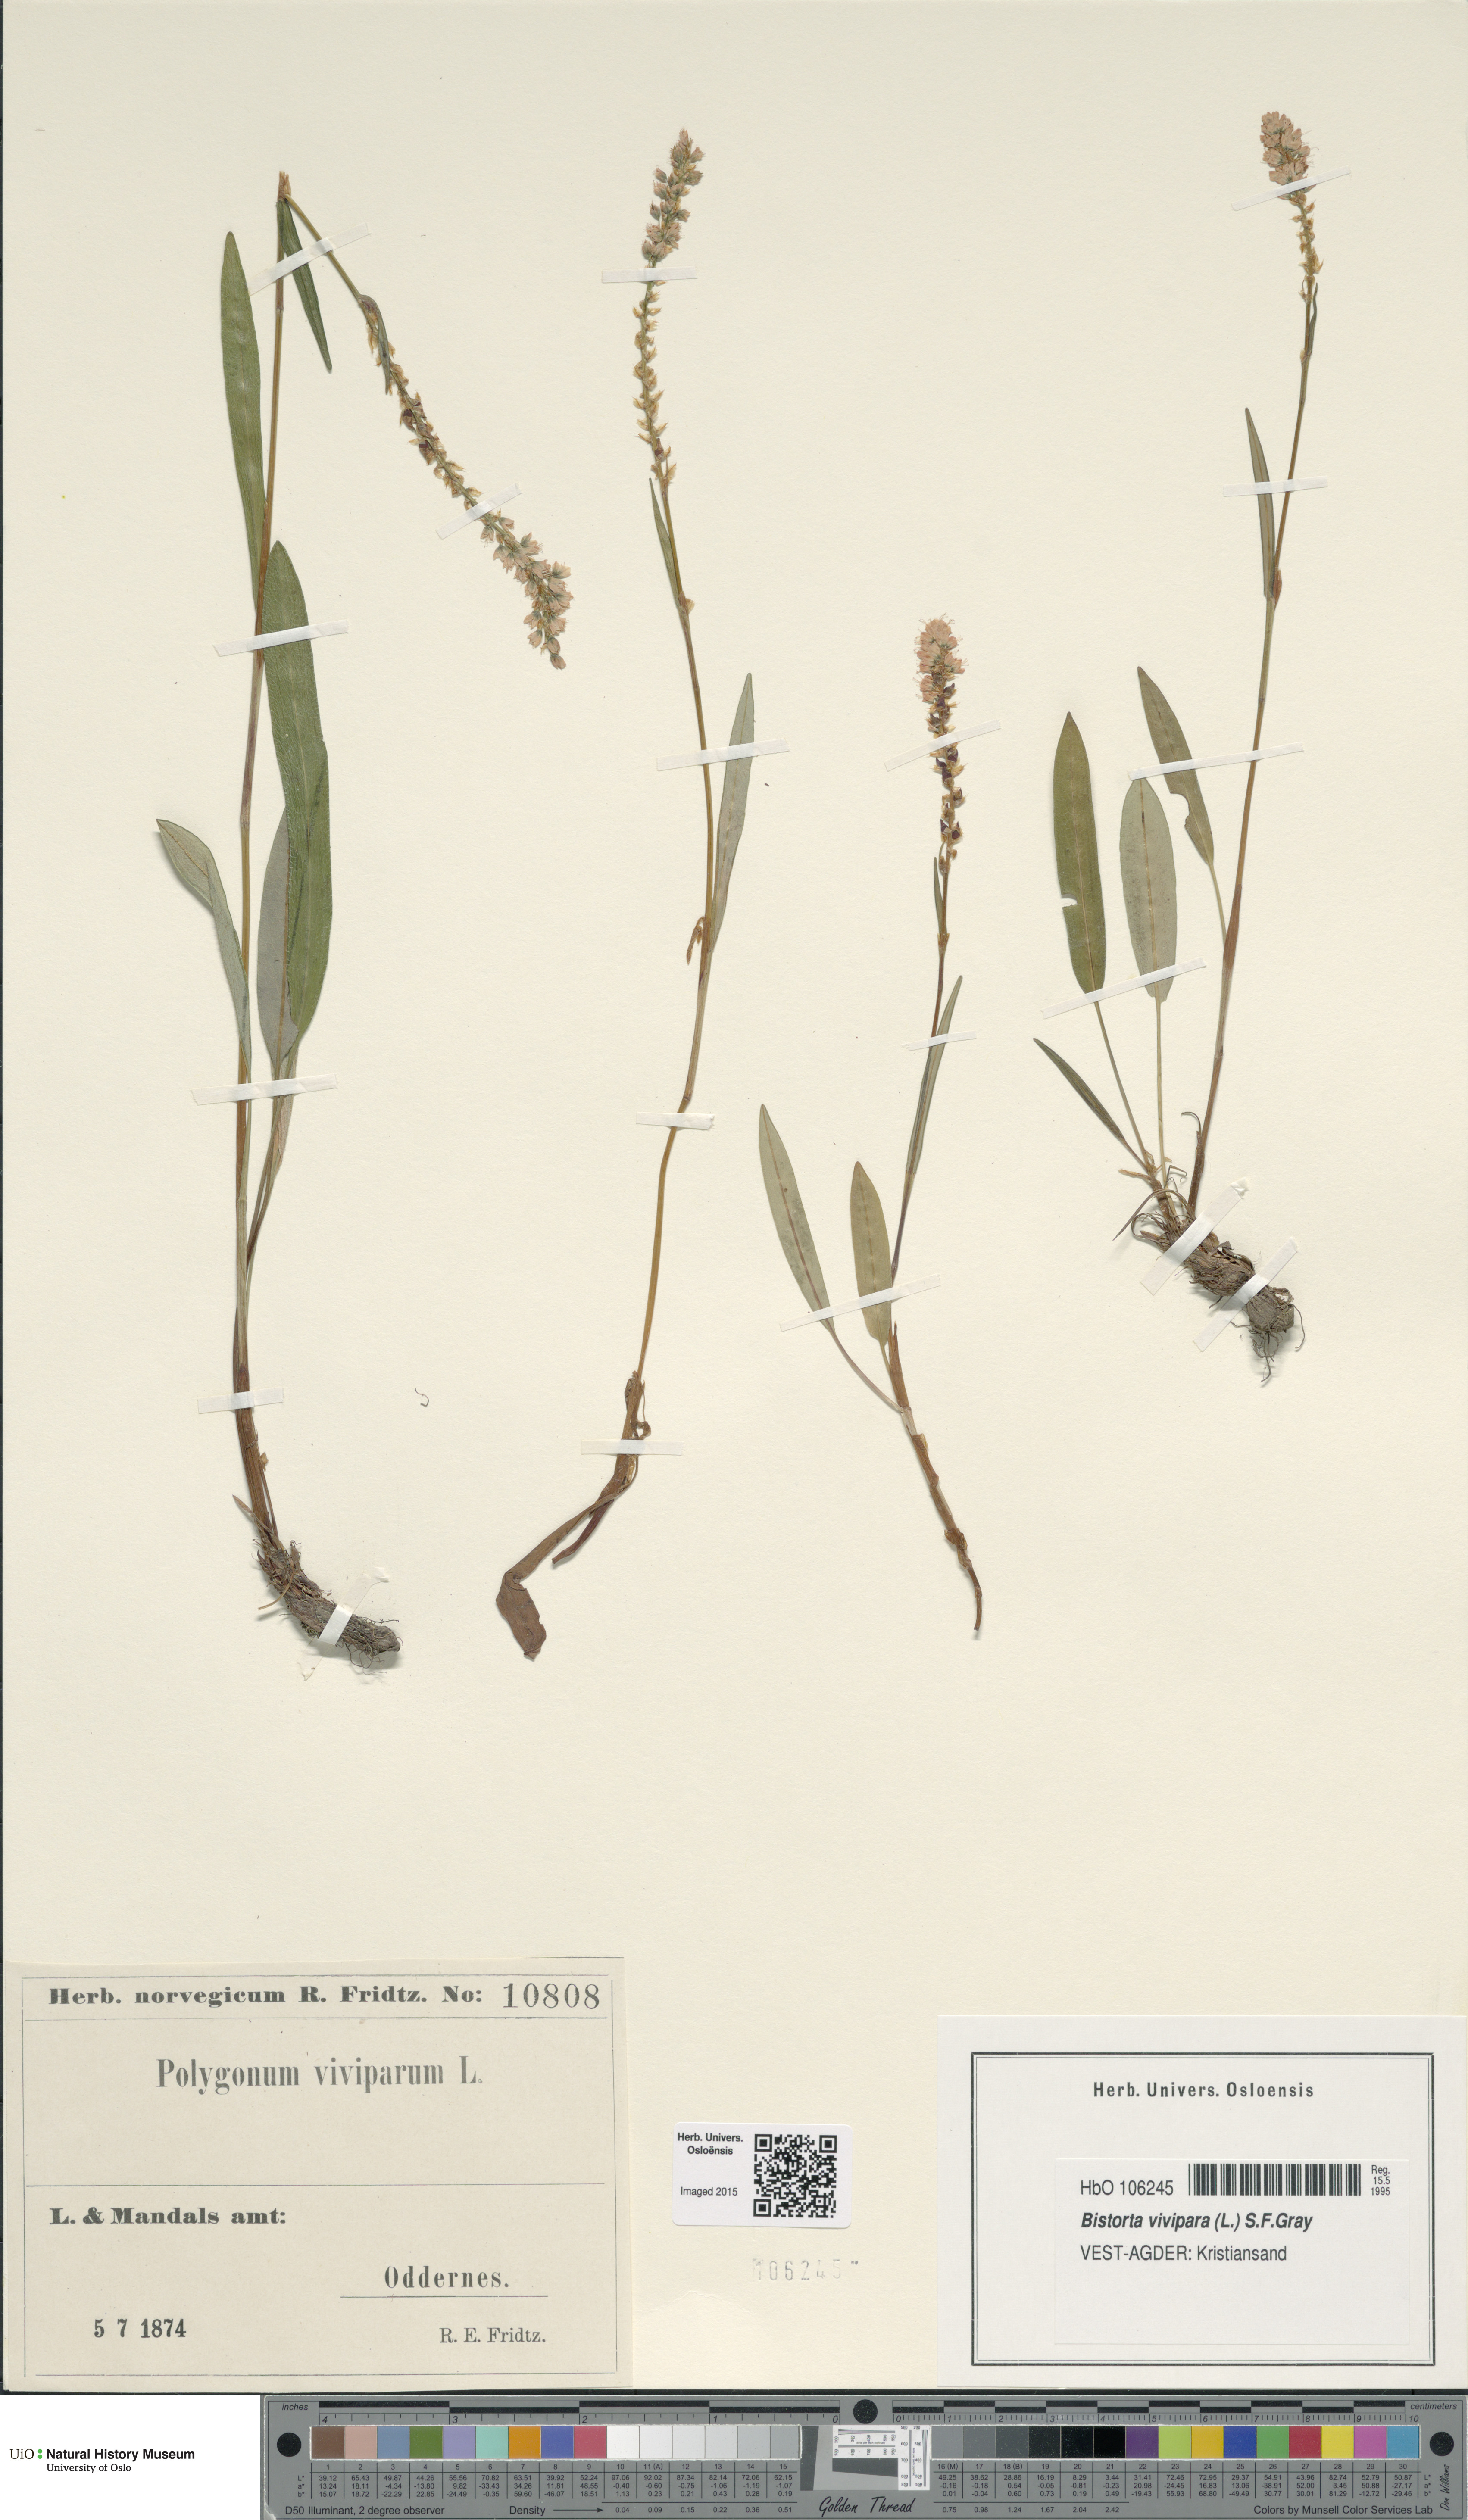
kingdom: Plantae
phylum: Tracheophyta
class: Magnoliopsida
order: Caryophyllales
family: Polygonaceae
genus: Bistorta
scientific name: Bistorta vivipara
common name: Alpine bistort
